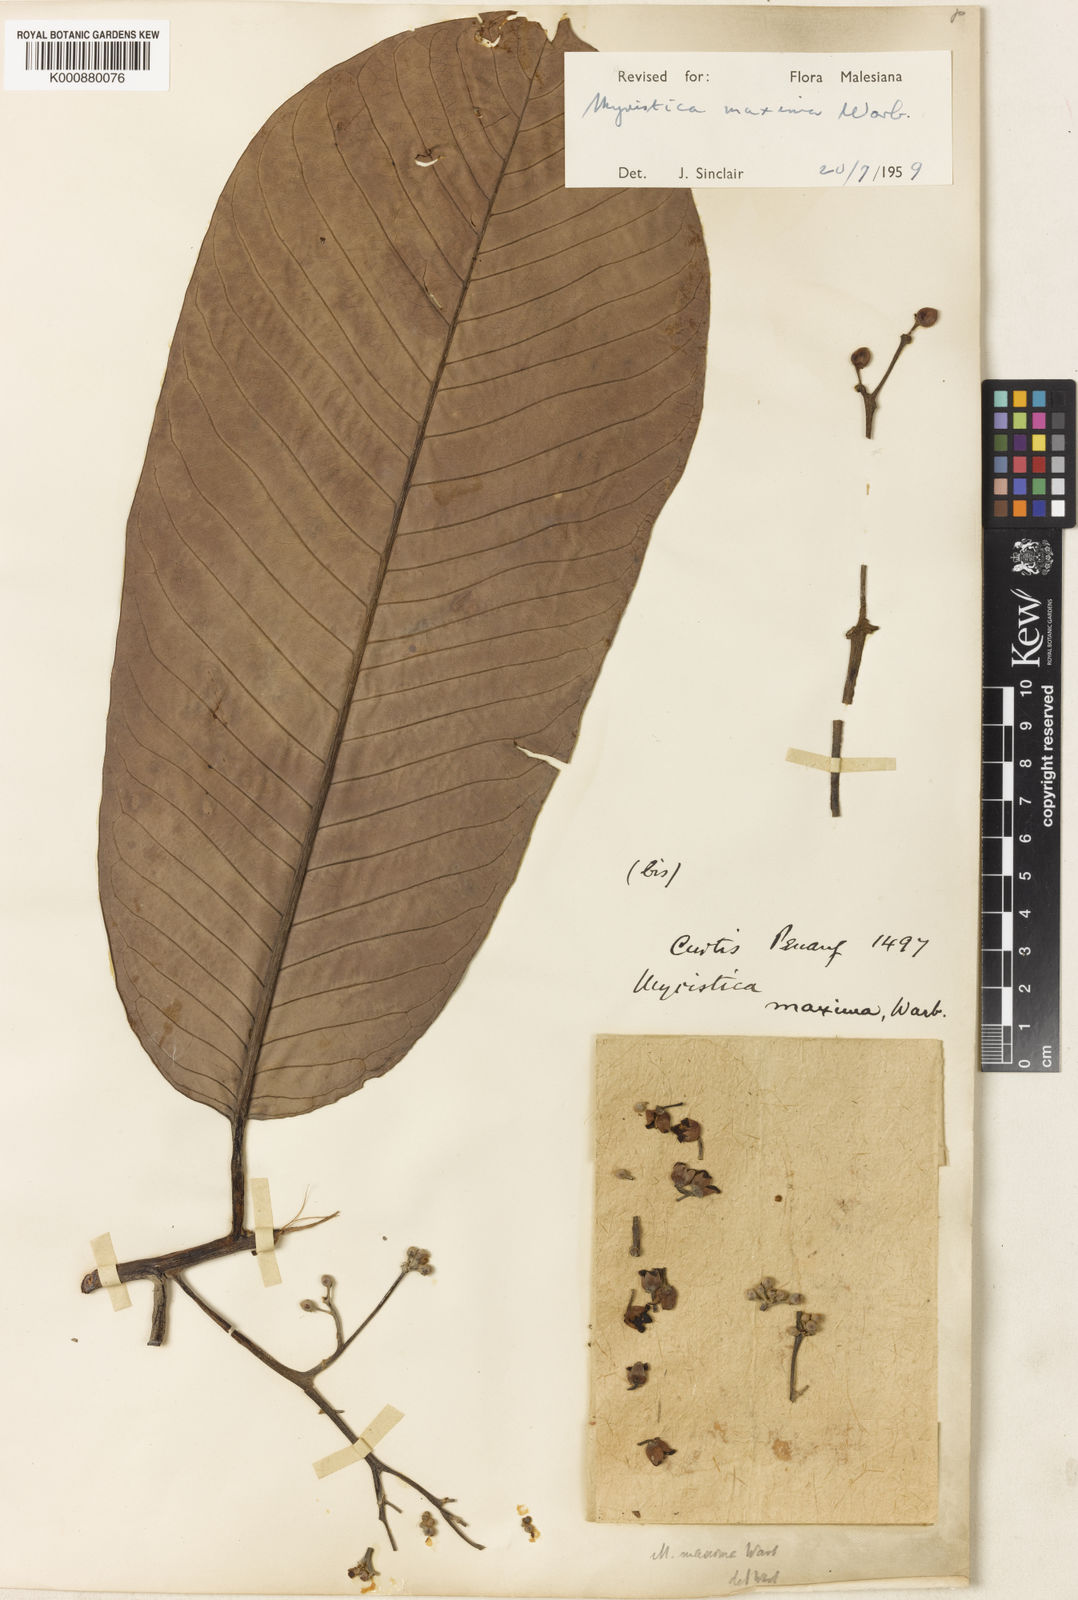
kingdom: Plantae
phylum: Tracheophyta
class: Magnoliopsida
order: Magnoliales
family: Myristicaceae
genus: Myristica
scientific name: Myristica maxima
